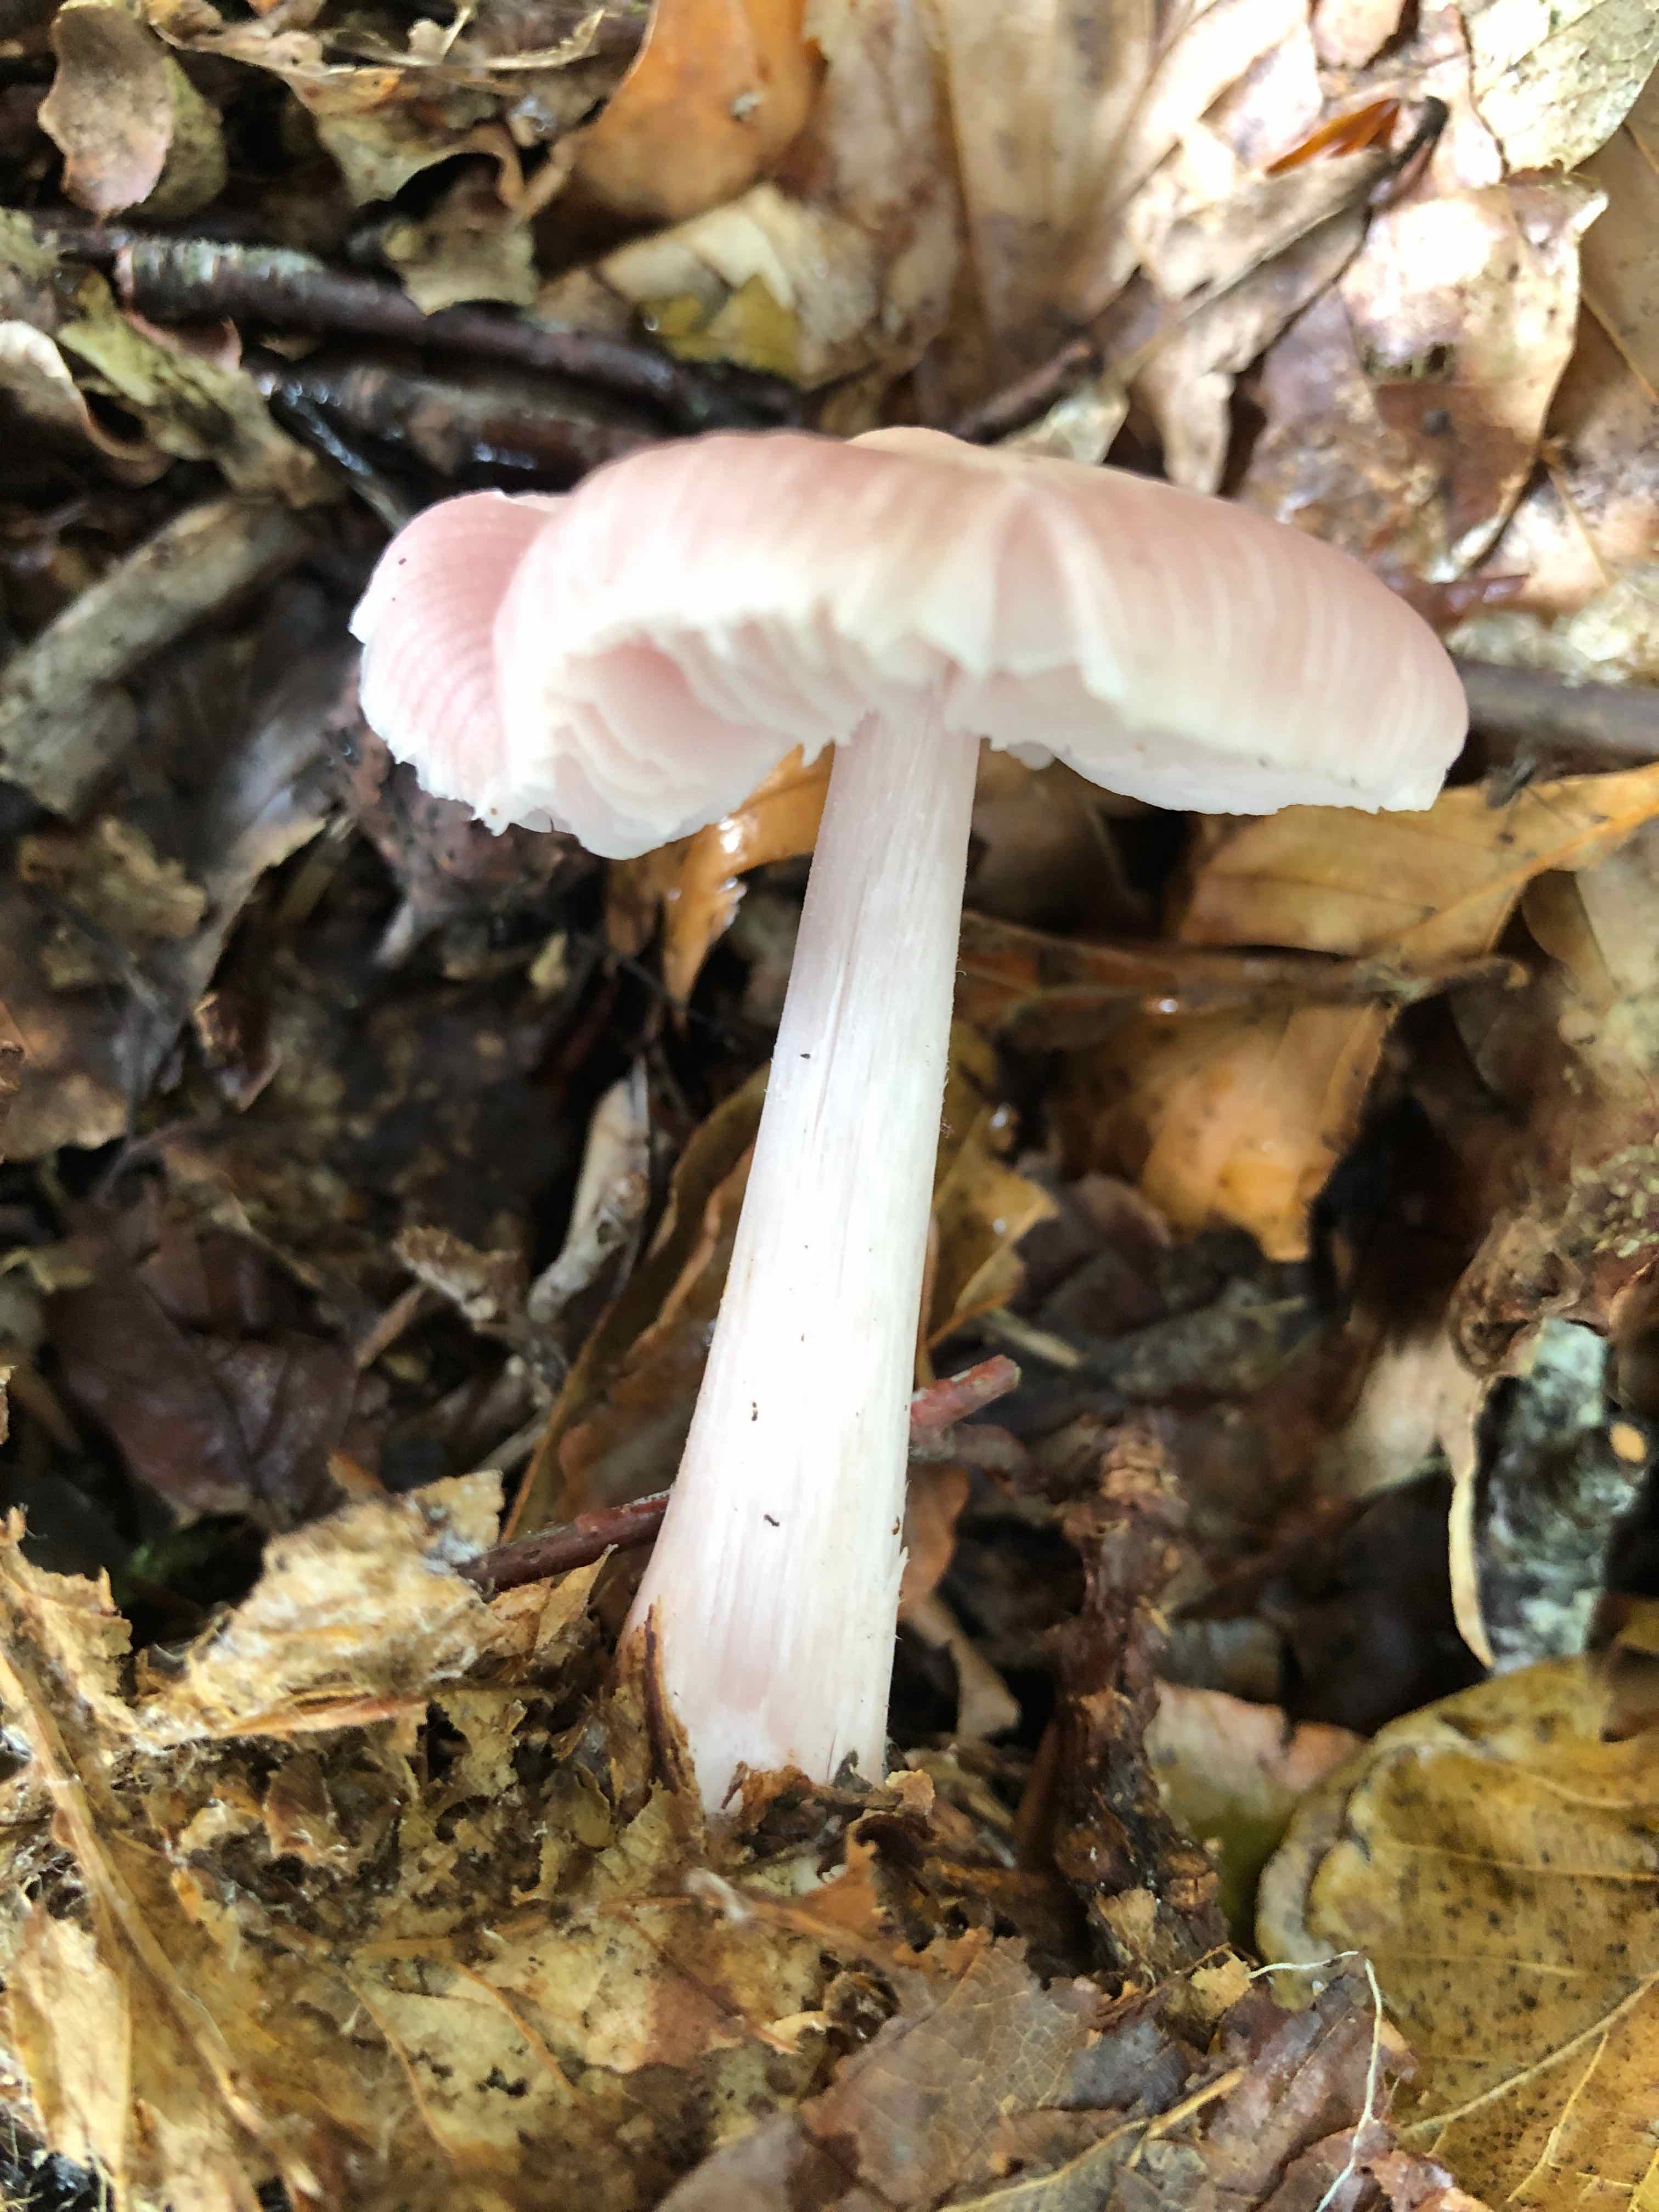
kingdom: Fungi
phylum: Basidiomycota
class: Agaricomycetes
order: Agaricales
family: Mycenaceae
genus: Mycena
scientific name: Mycena rosea
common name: rosa huesvamp
